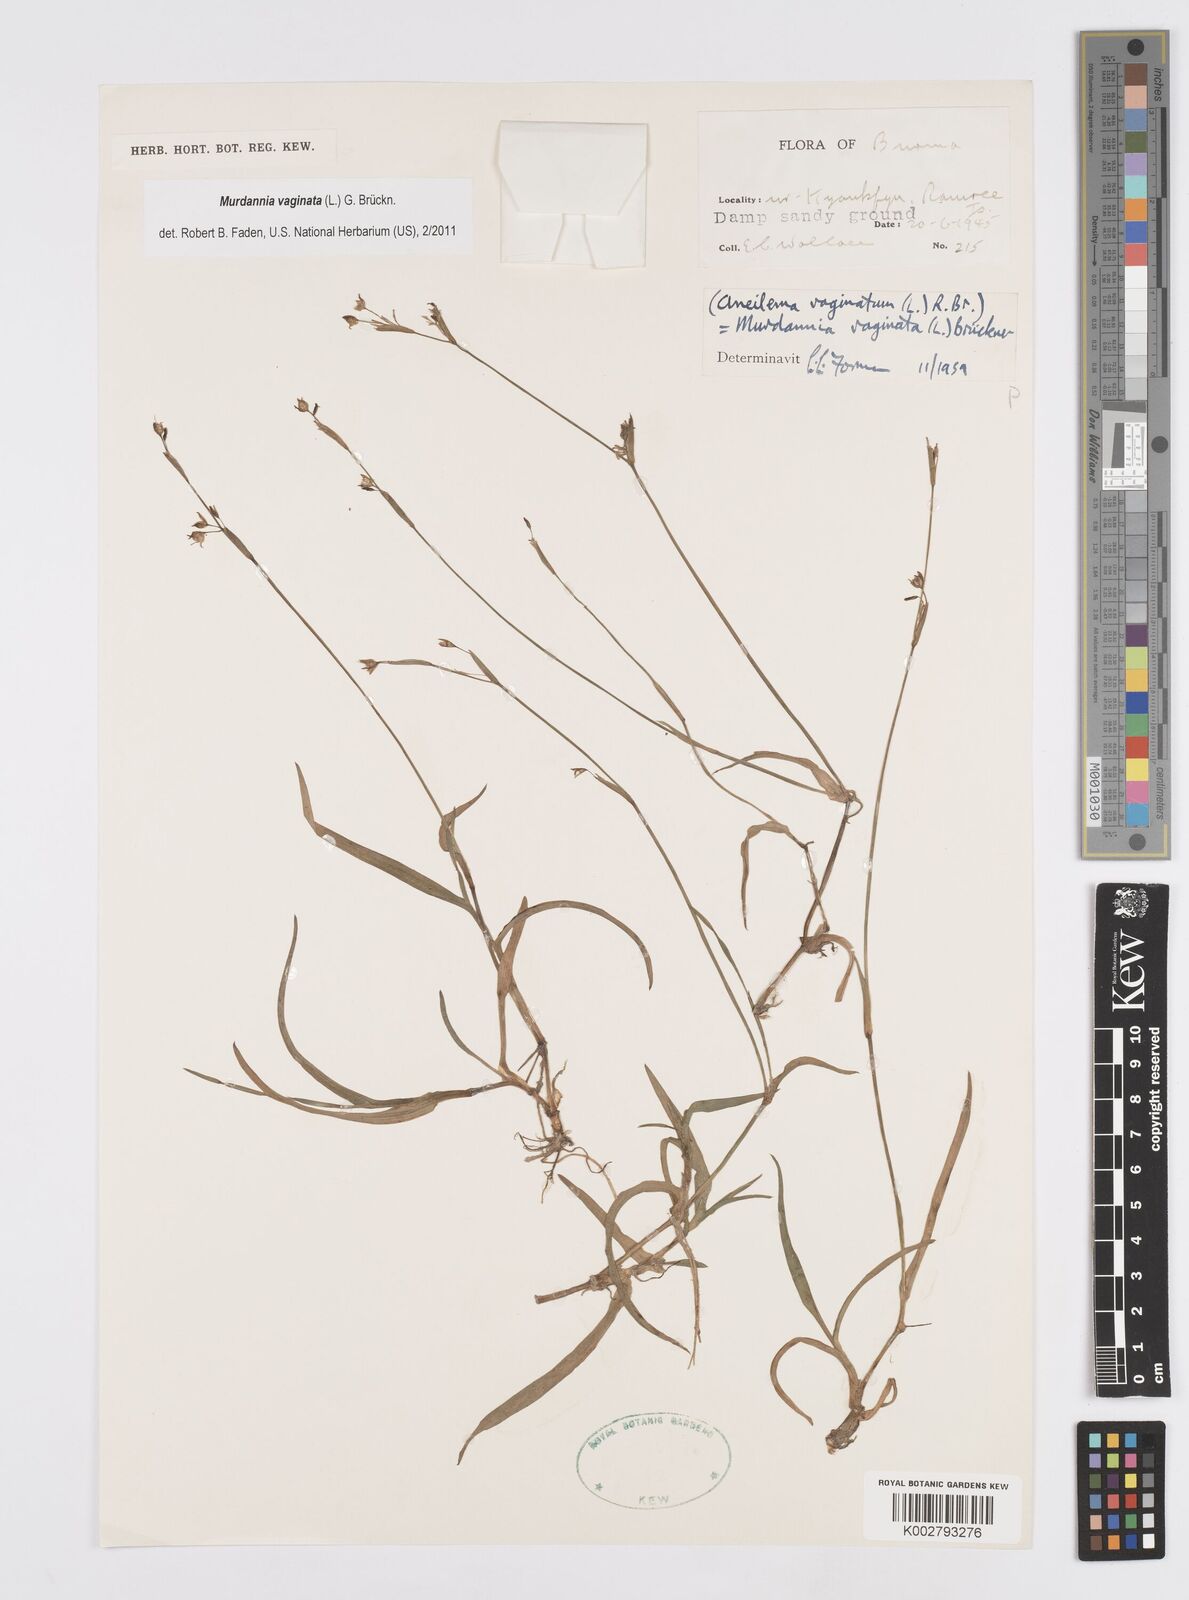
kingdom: Plantae
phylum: Tracheophyta
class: Liliopsida
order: Commelinales
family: Commelinaceae
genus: Murdannia
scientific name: Murdannia vaginata
